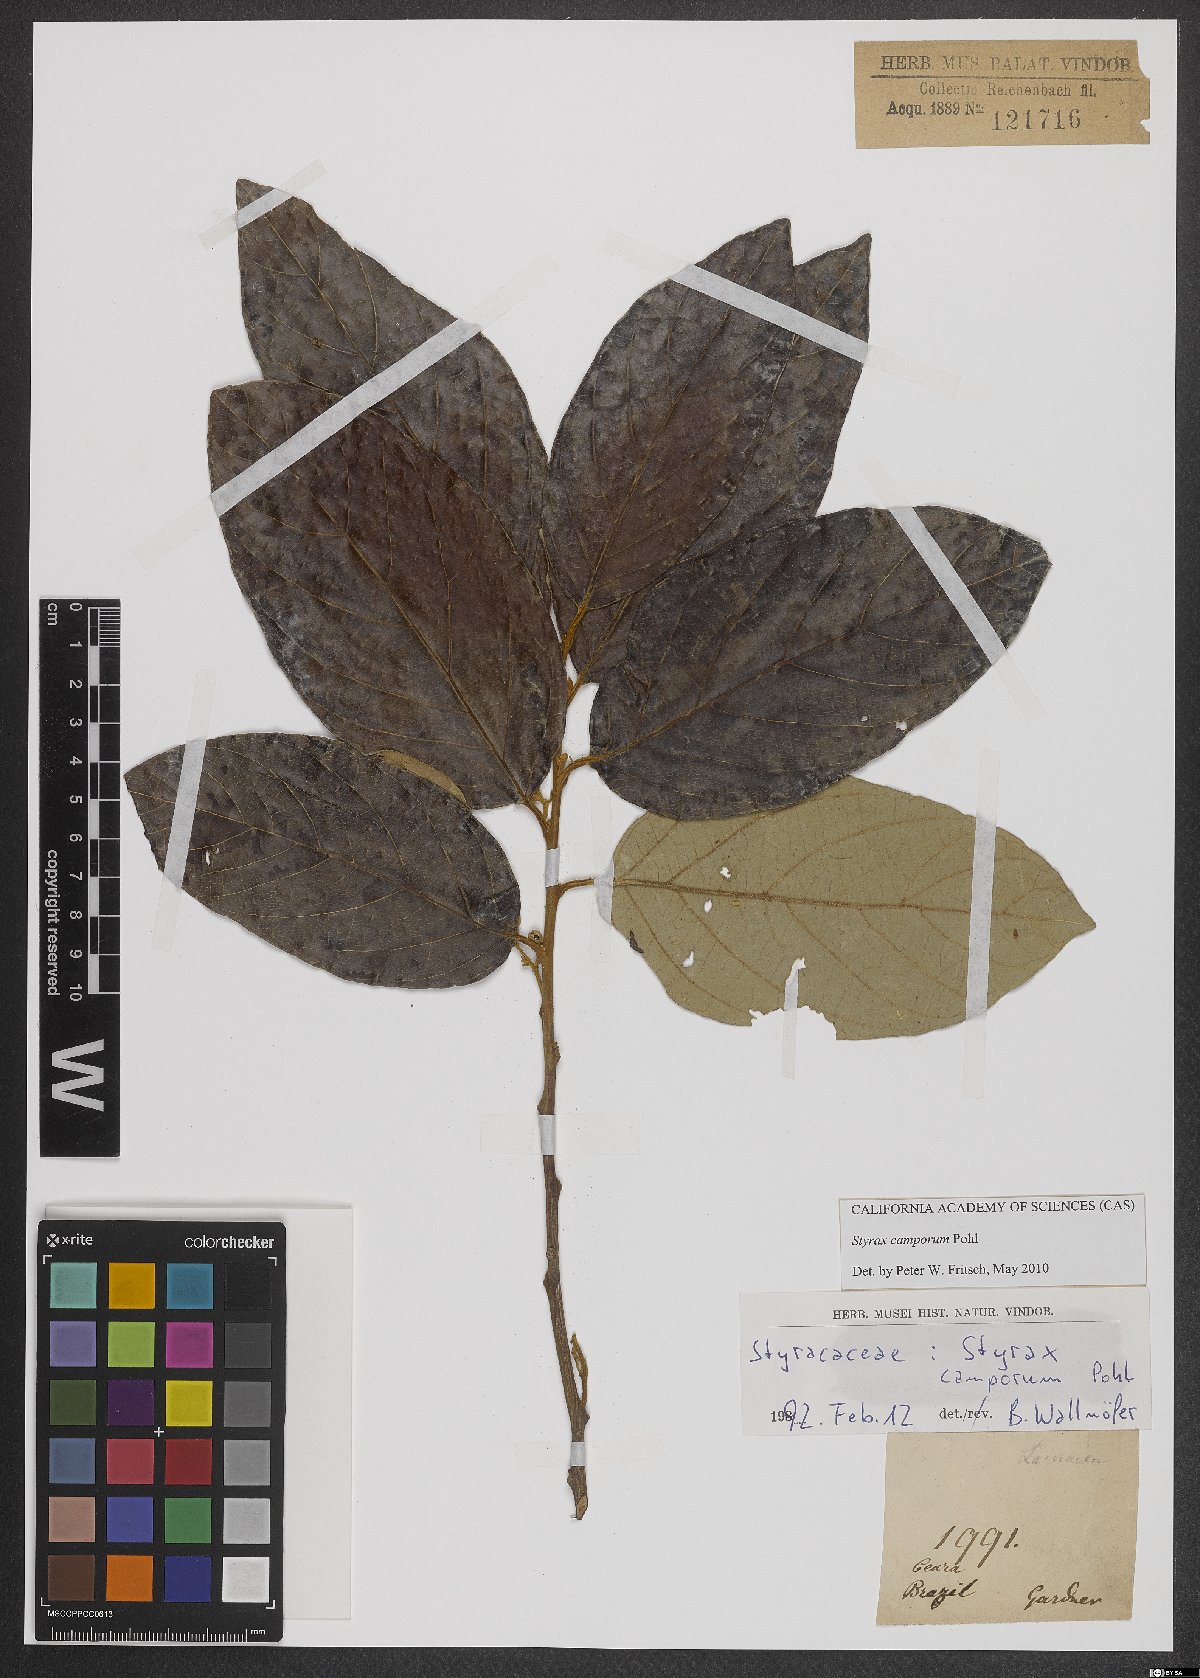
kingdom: Plantae
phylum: Tracheophyta
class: Magnoliopsida
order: Ericales
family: Styracaceae
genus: Styrax
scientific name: Styrax camporum
